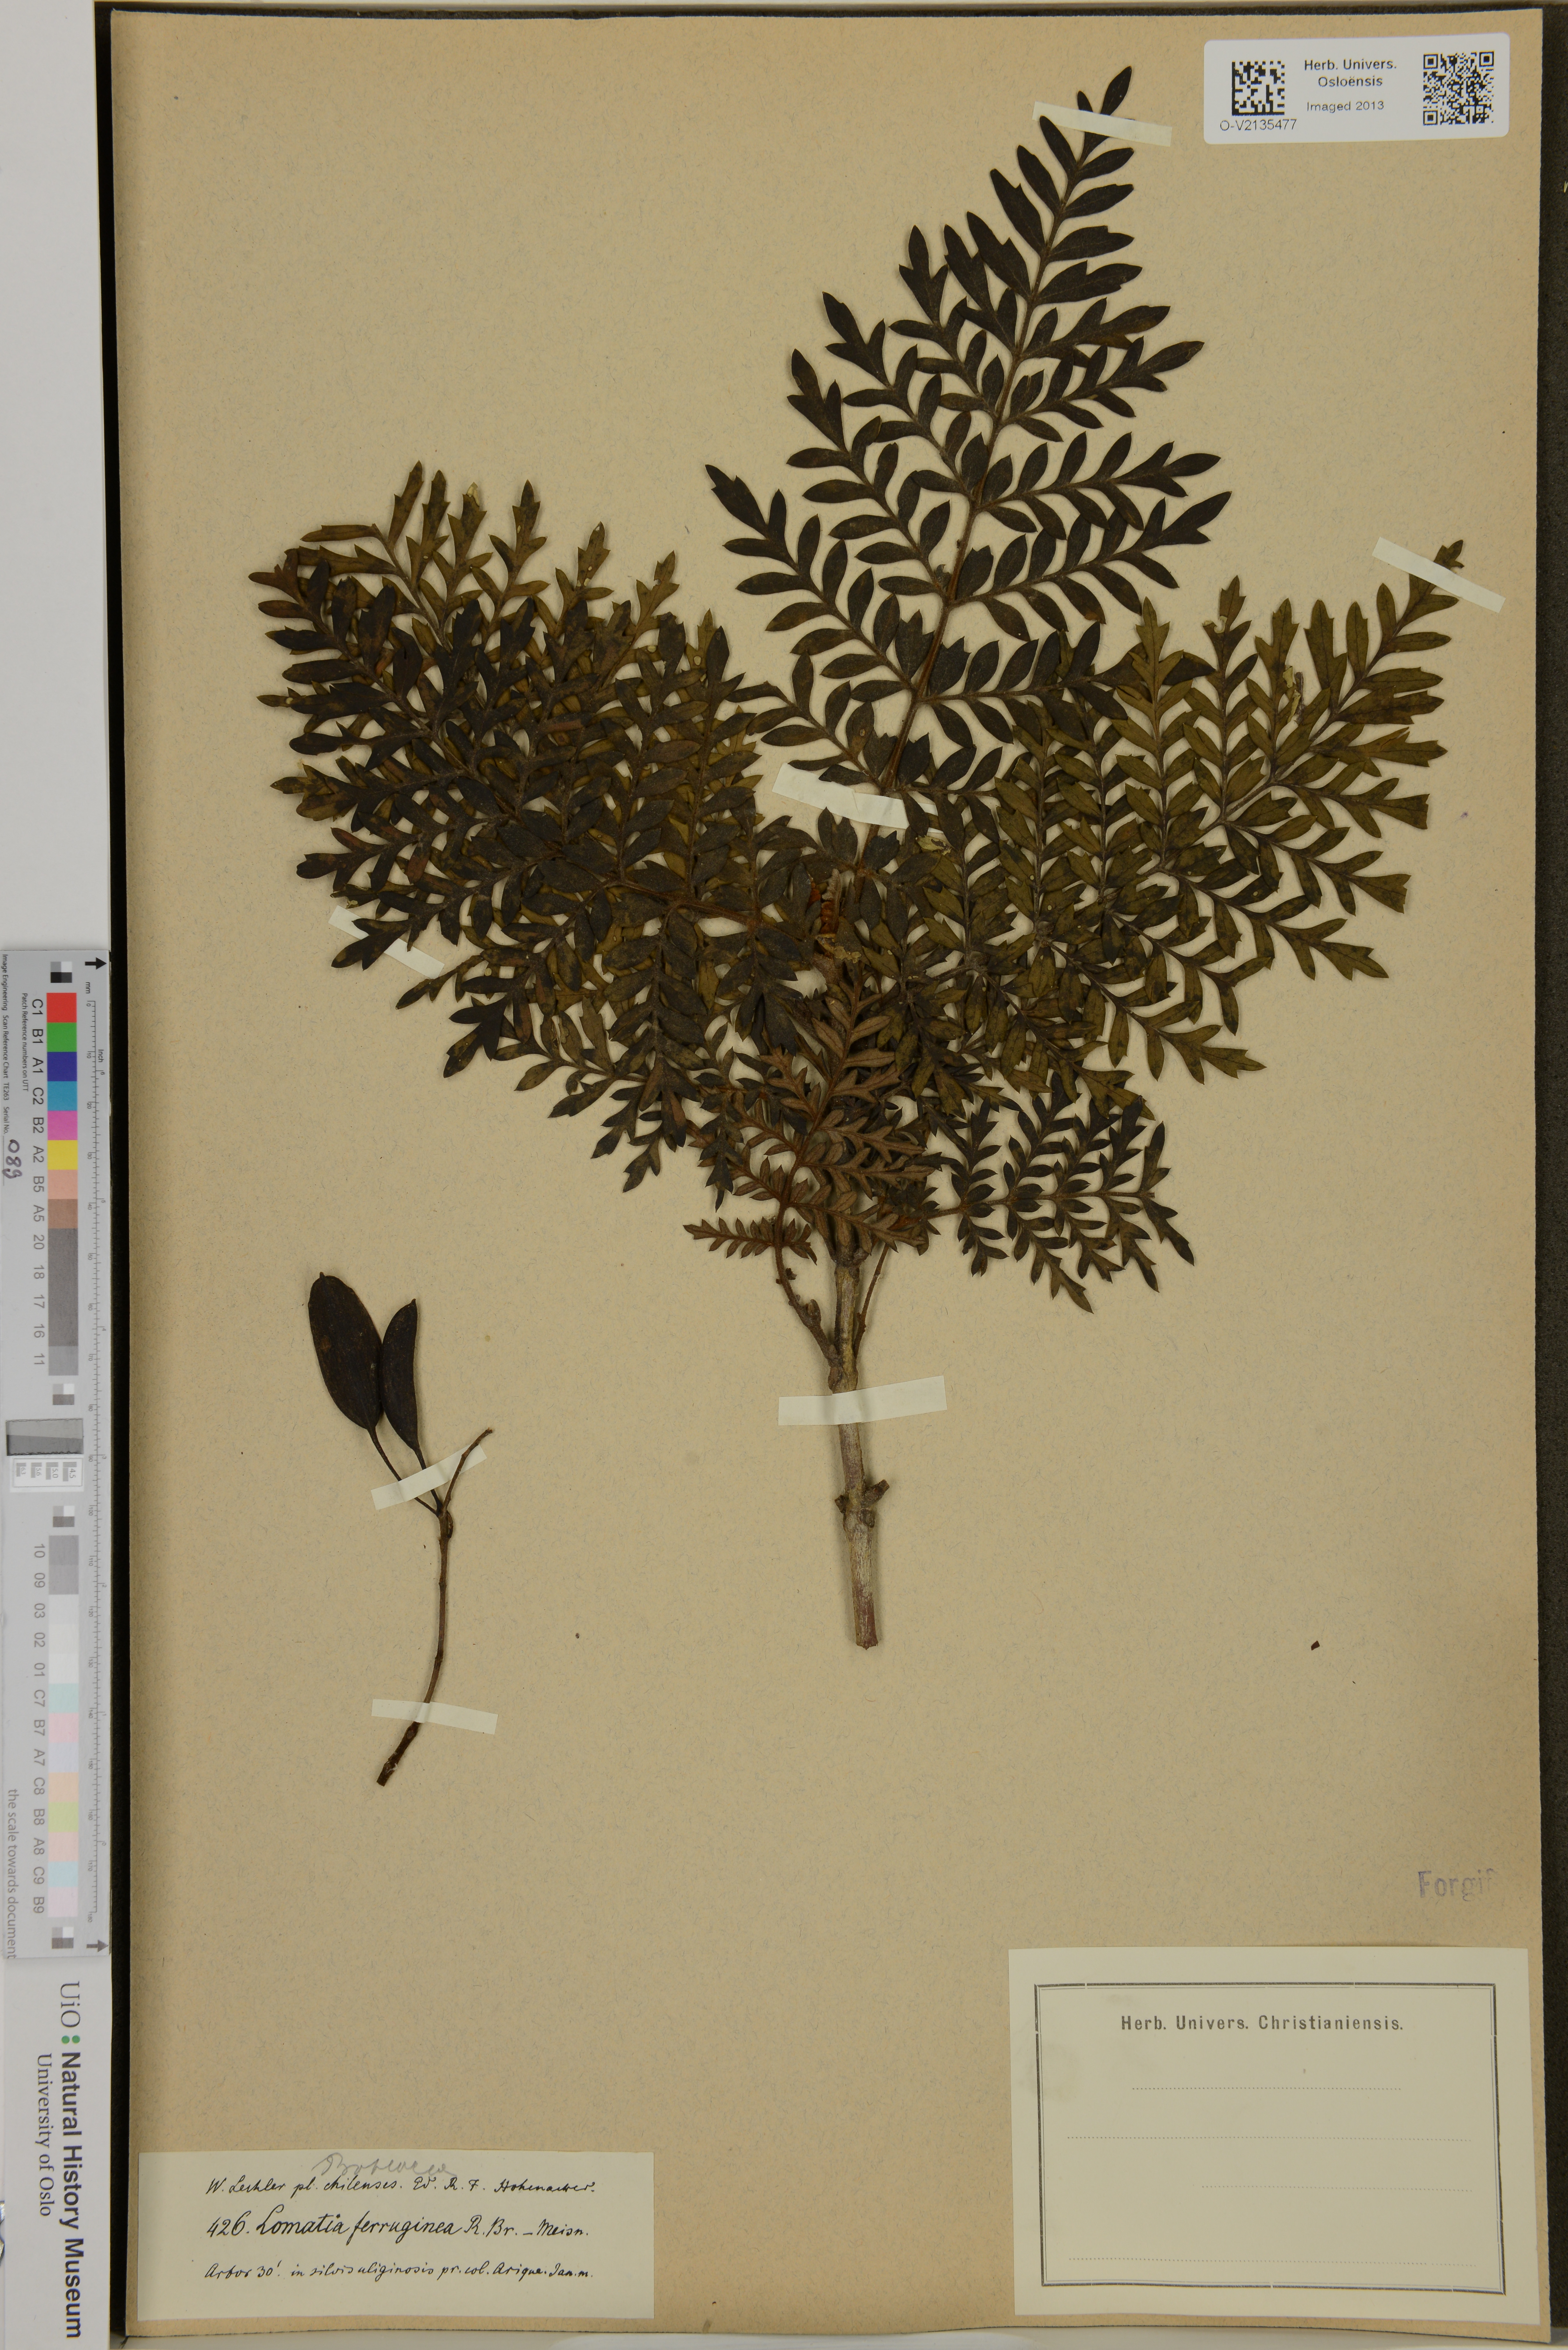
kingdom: Plantae
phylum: Tracheophyta
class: Magnoliopsida
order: Proteales
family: Proteaceae
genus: Lomatia
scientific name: Lomatia ferruginea
